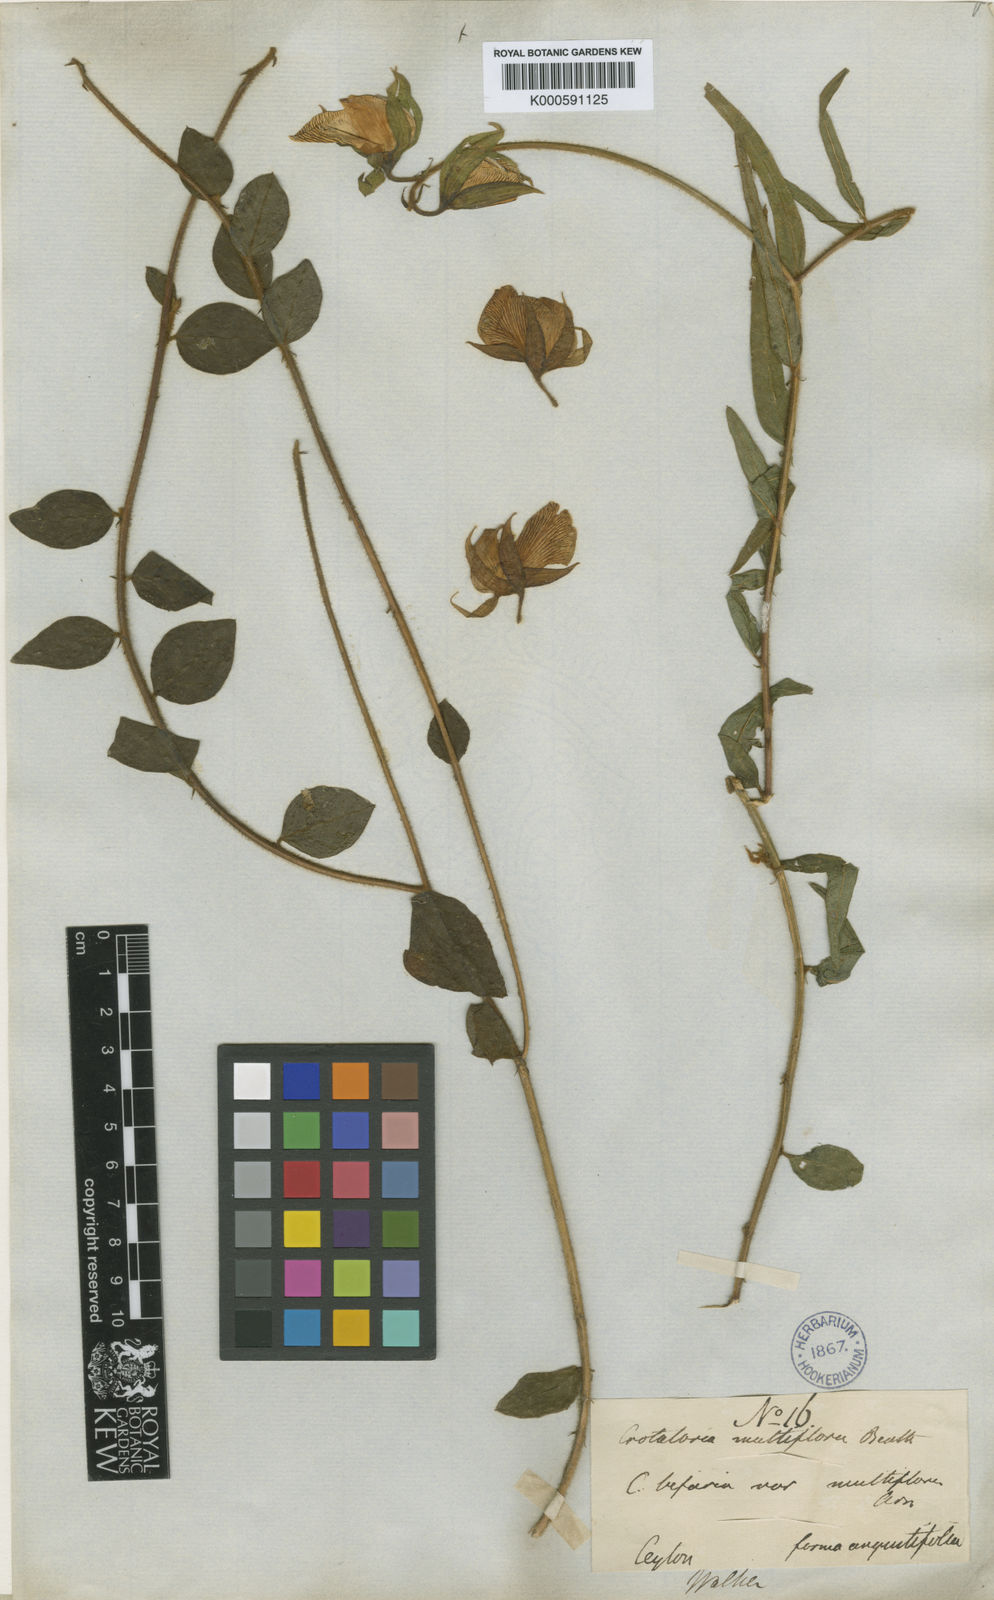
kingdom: Plantae
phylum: Tracheophyta
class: Magnoliopsida
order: Fabales
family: Fabaceae
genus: Crotalaria
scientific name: Crotalaria multiflora
